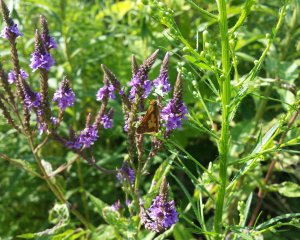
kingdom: Animalia
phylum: Arthropoda
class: Insecta
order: Lepidoptera
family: Hesperiidae
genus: Polites
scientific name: Polites coras
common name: Peck's Skipper
